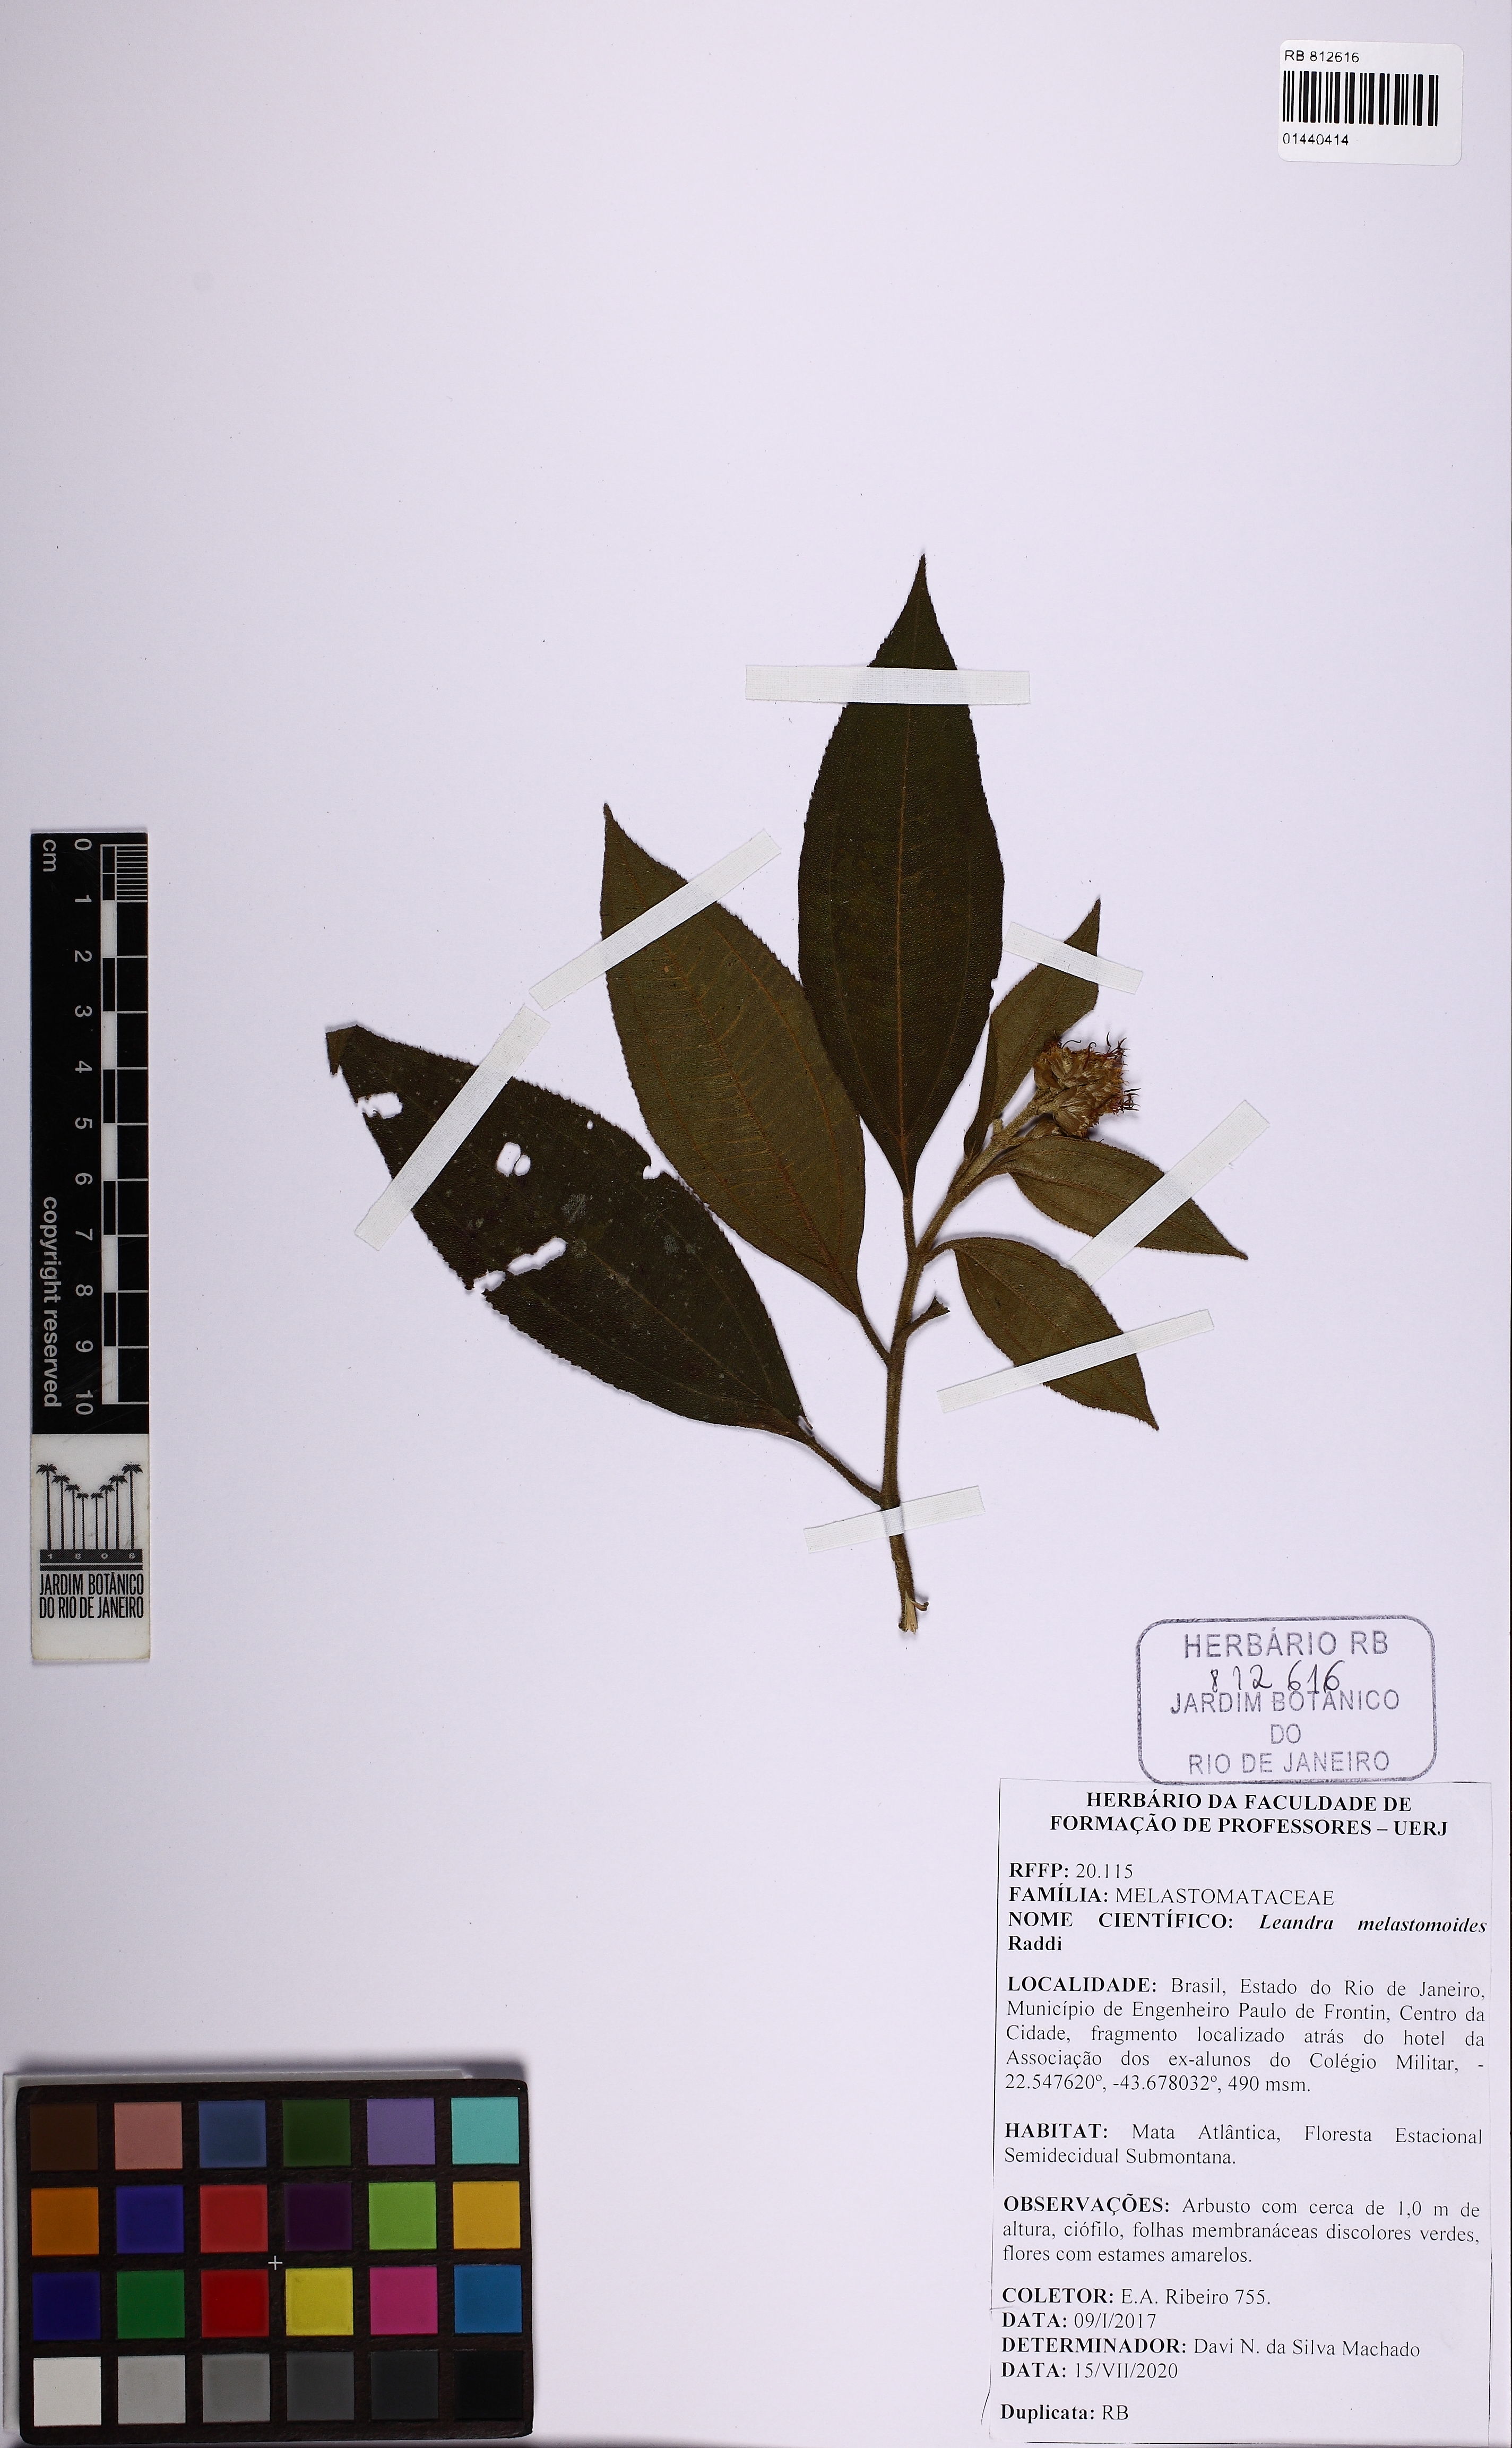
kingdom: Plantae
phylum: Tracheophyta
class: Magnoliopsida
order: Myrtales
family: Melastomataceae
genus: Miconia
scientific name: Miconia melastomoides
